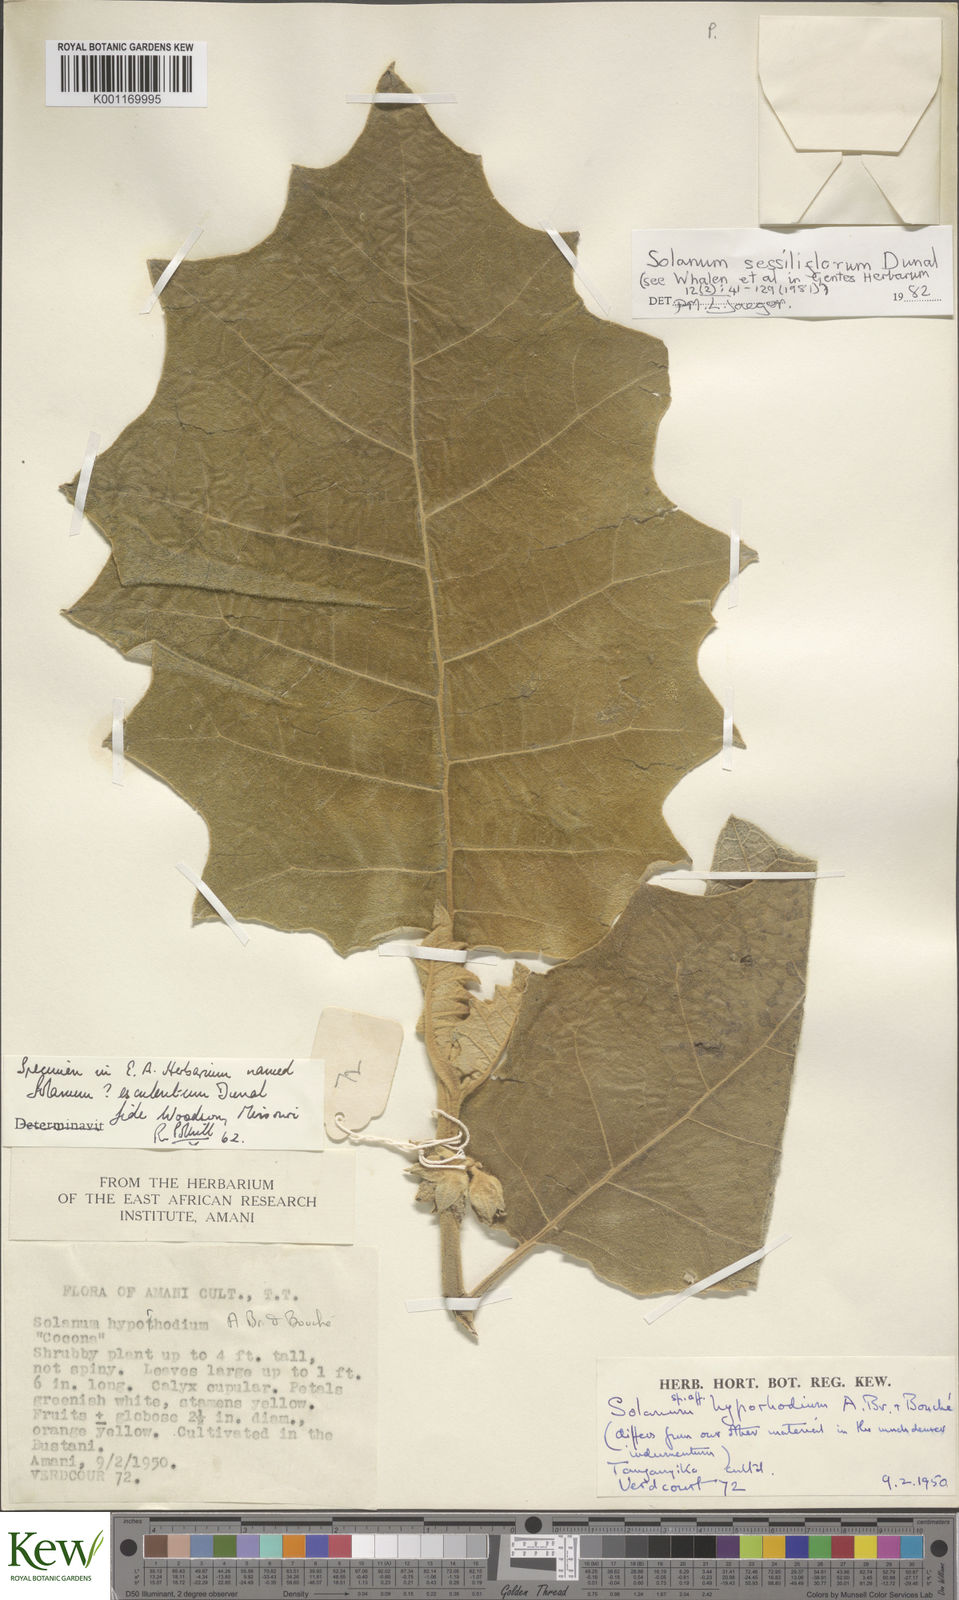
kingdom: Plantae
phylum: Tracheophyta
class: Magnoliopsida
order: Solanales
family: Solanaceae
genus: Solanum
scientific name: Solanum sessiliflorum
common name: Orinoco-apple
